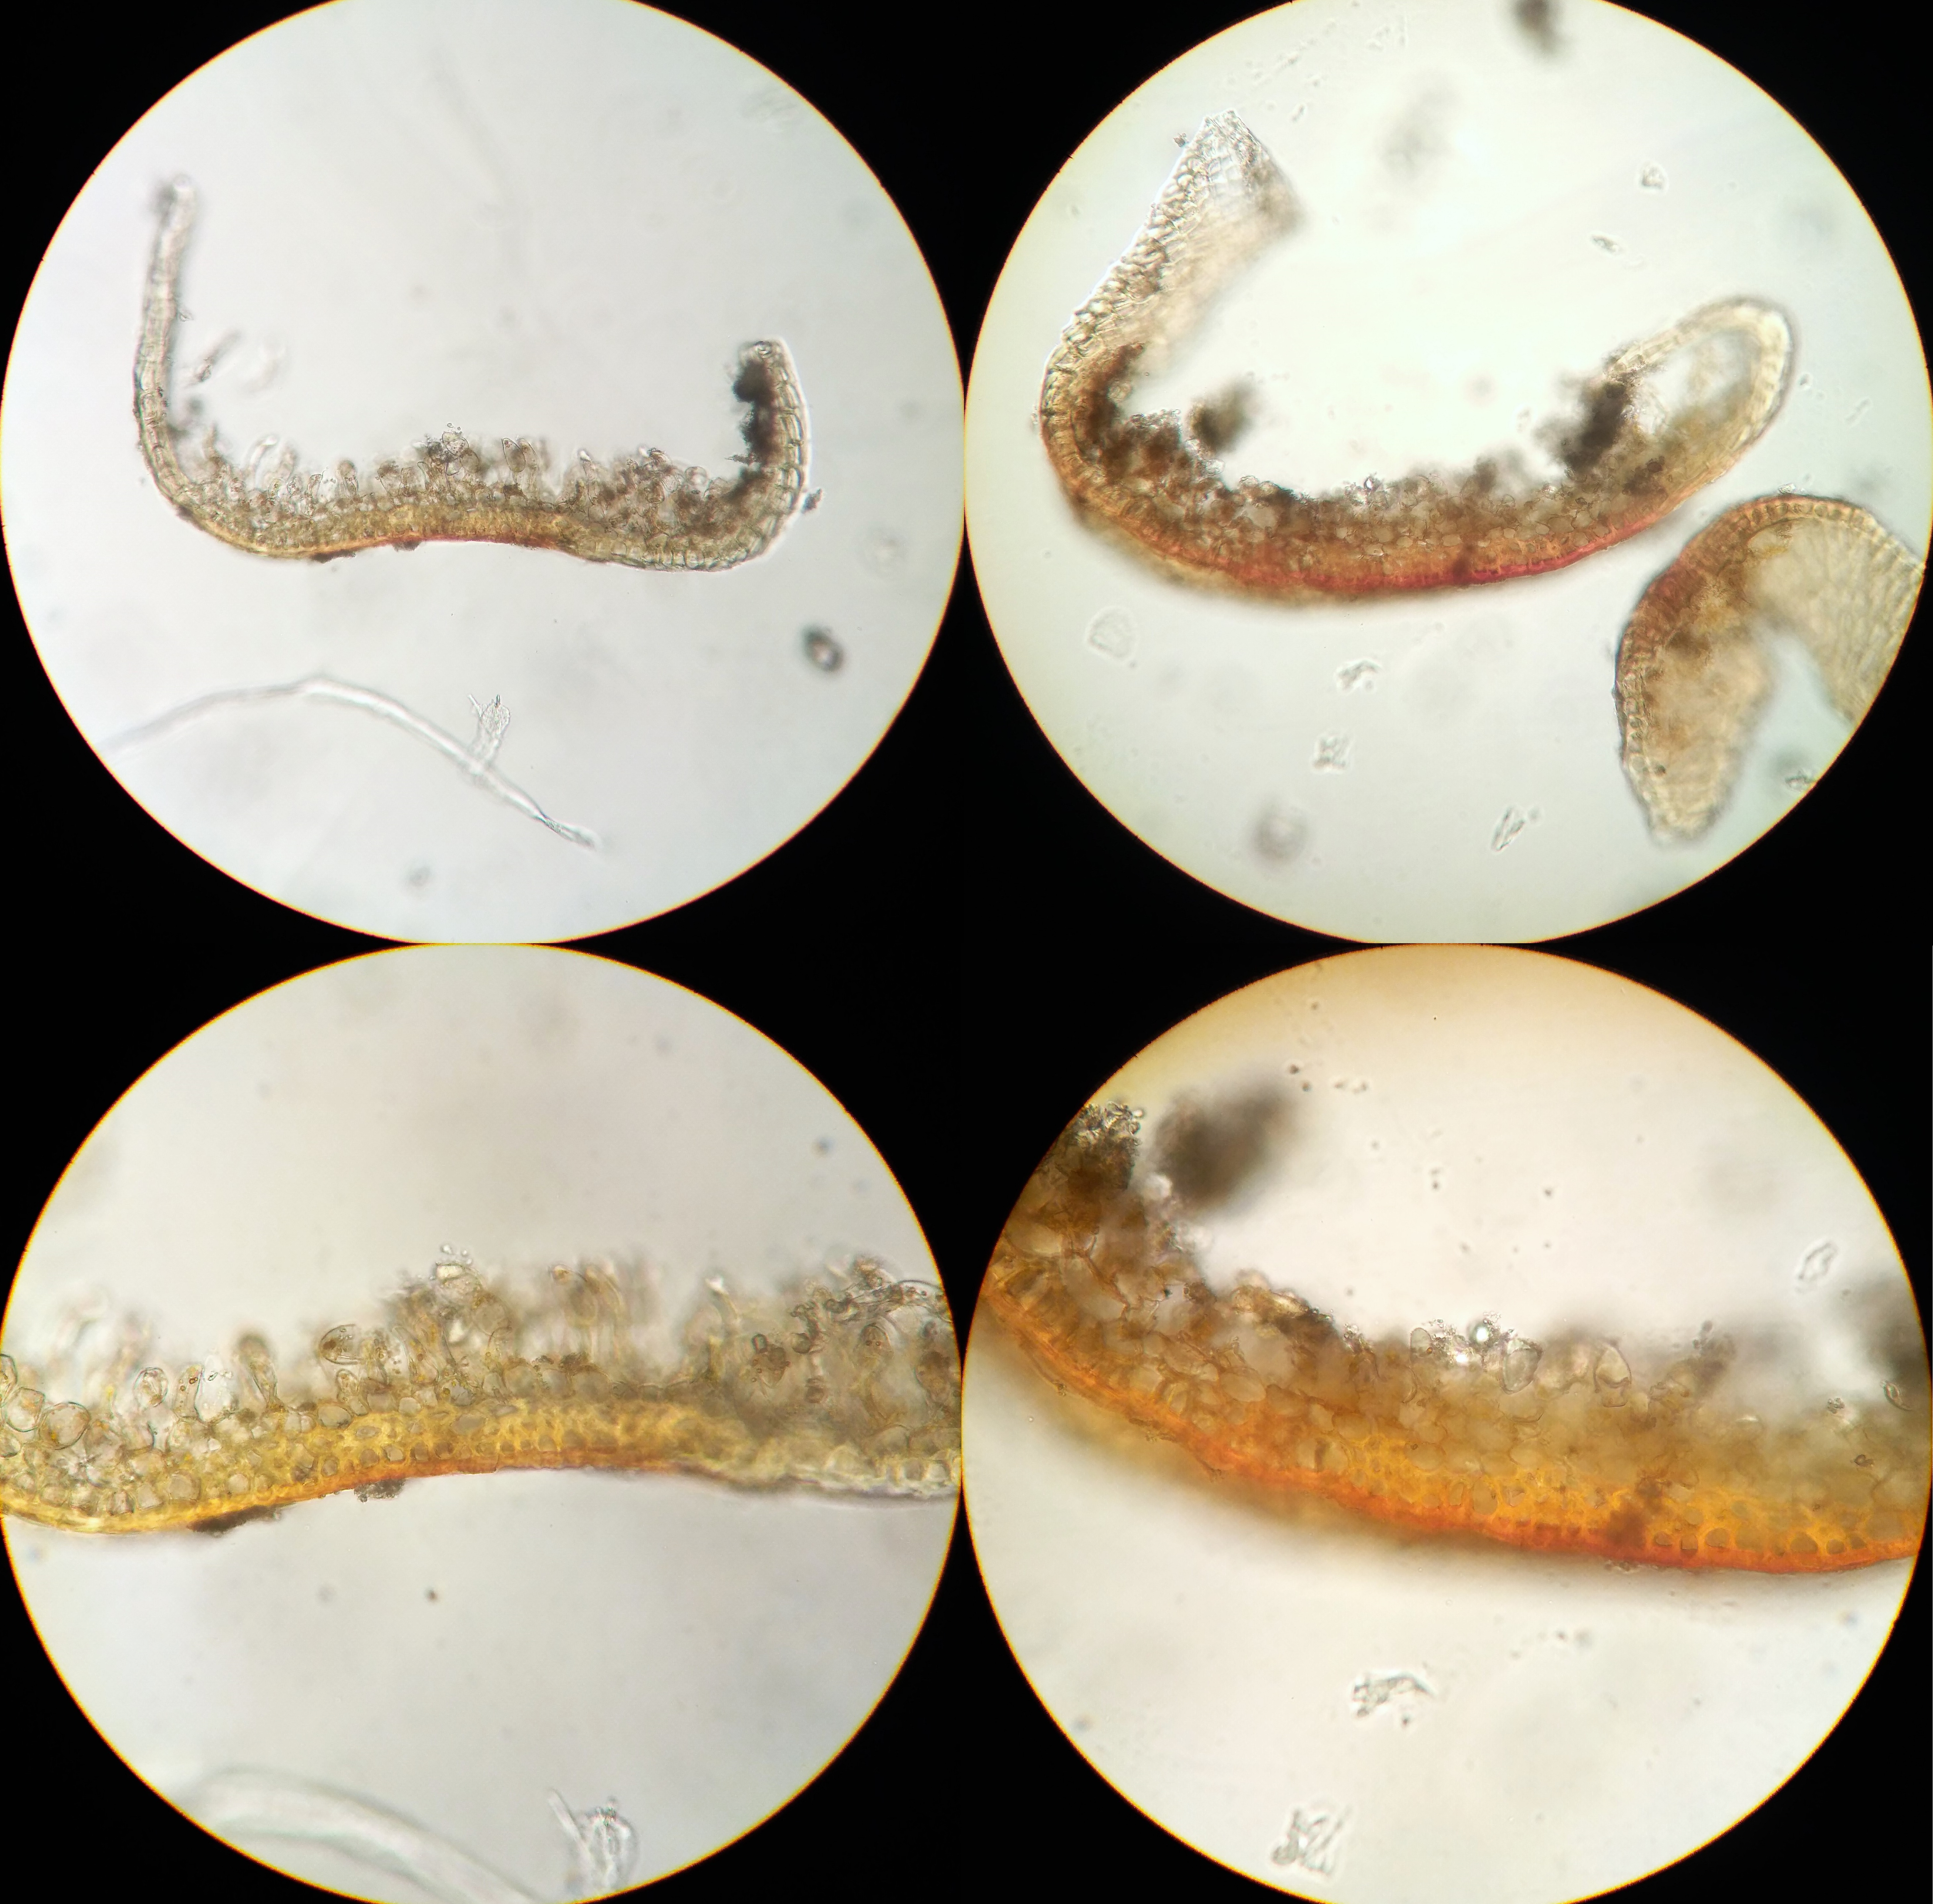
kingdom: Plantae
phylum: Bryophyta
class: Bryopsida
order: Pottiales
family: Pottiaceae
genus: Aloina
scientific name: Aloina brevirostris
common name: Kort tøffelmos
